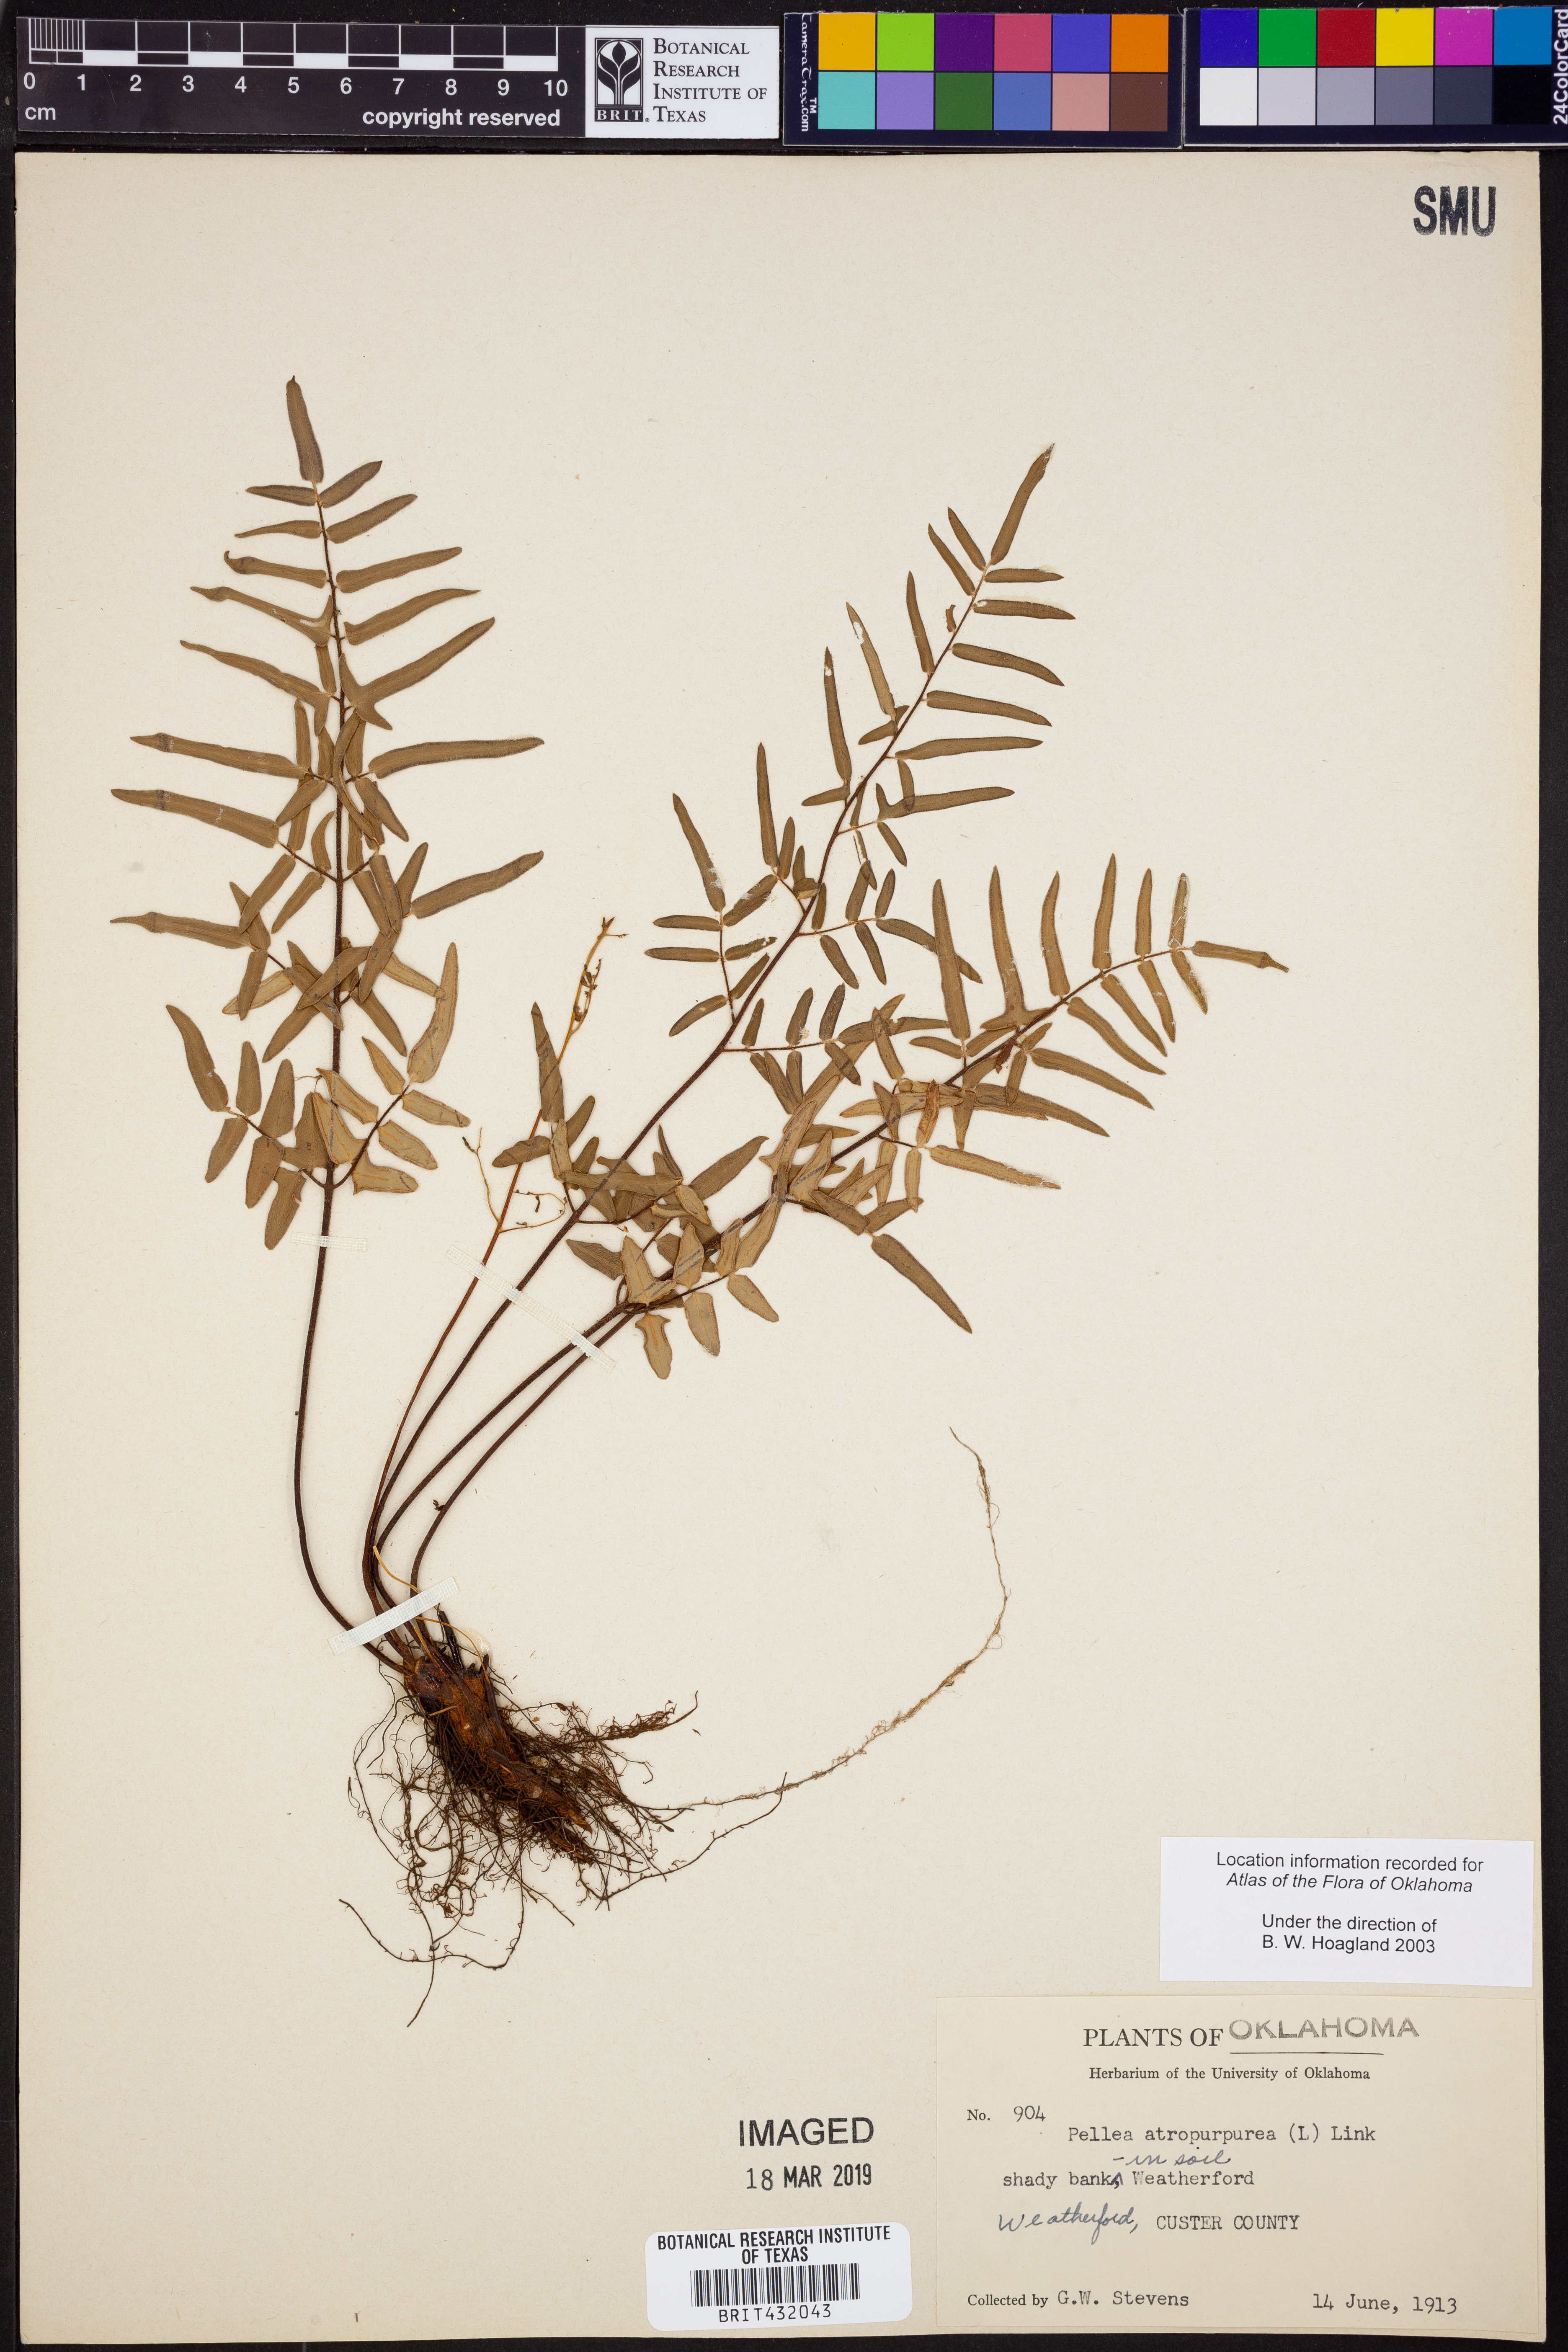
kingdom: Plantae
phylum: Tracheophyta
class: Polypodiopsida
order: Polypodiales
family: Pteridaceae
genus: Pellaea
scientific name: Pellaea atropurpurea
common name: Hairy cliffbrake
